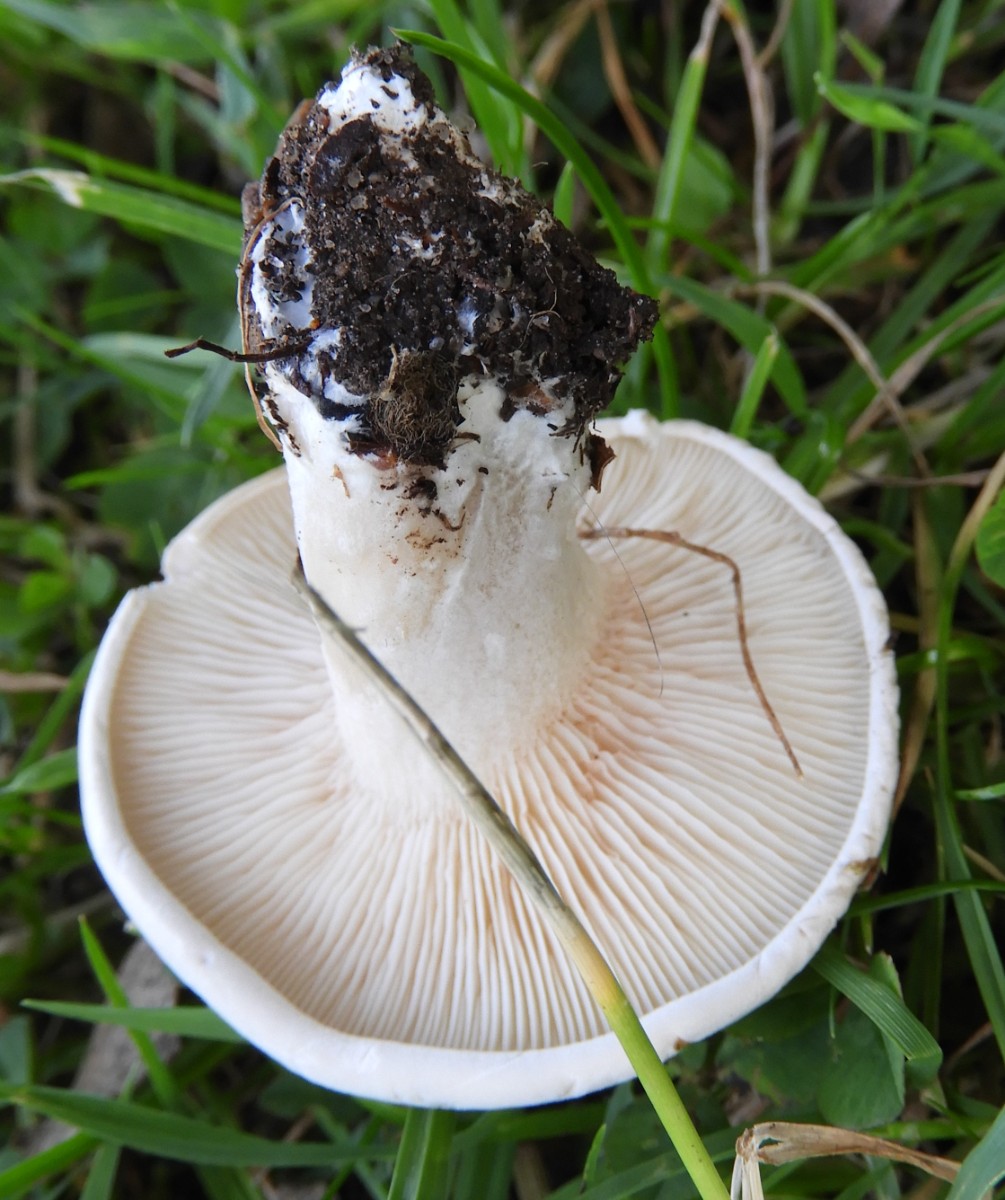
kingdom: Fungi
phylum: Basidiomycota
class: Agaricomycetes
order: Agaricales
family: Entolomataceae
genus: Clitopilus
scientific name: Clitopilus prunulus
